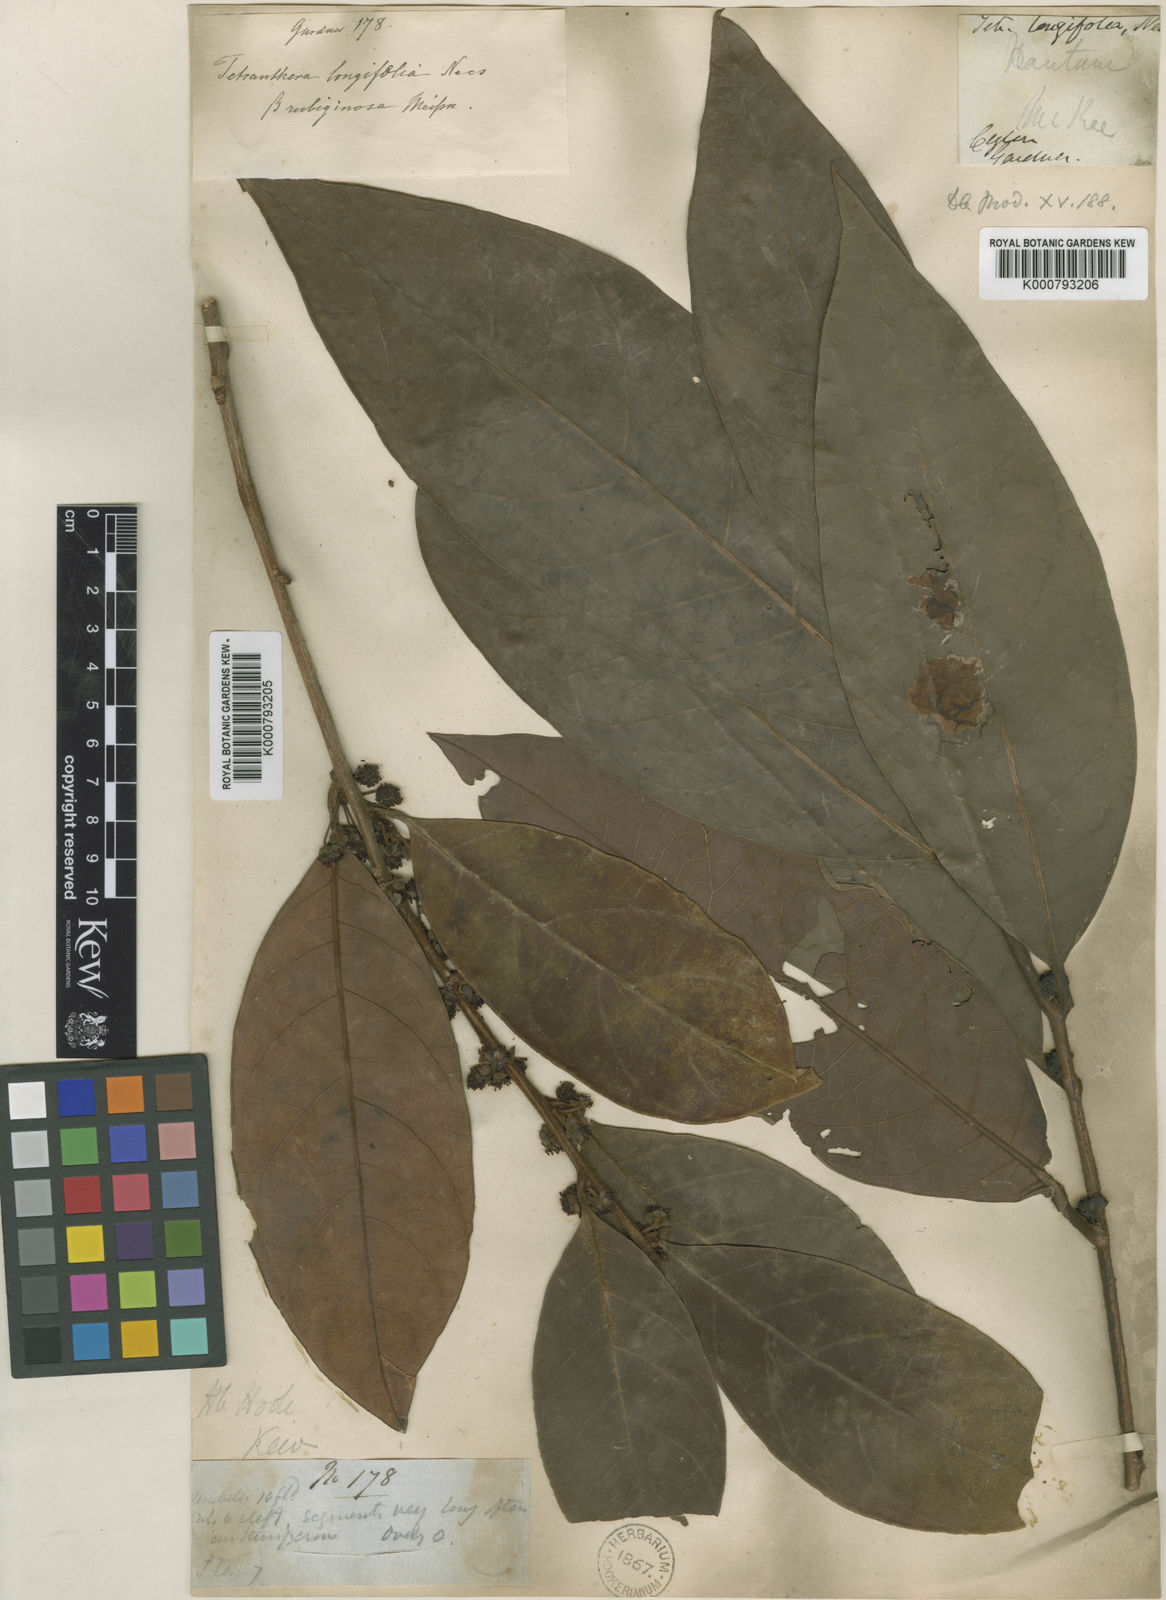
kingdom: Plantae
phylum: Tracheophyta
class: Magnoliopsida
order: Laurales
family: Lauraceae
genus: Litsea
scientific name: Litsea ligustrina
